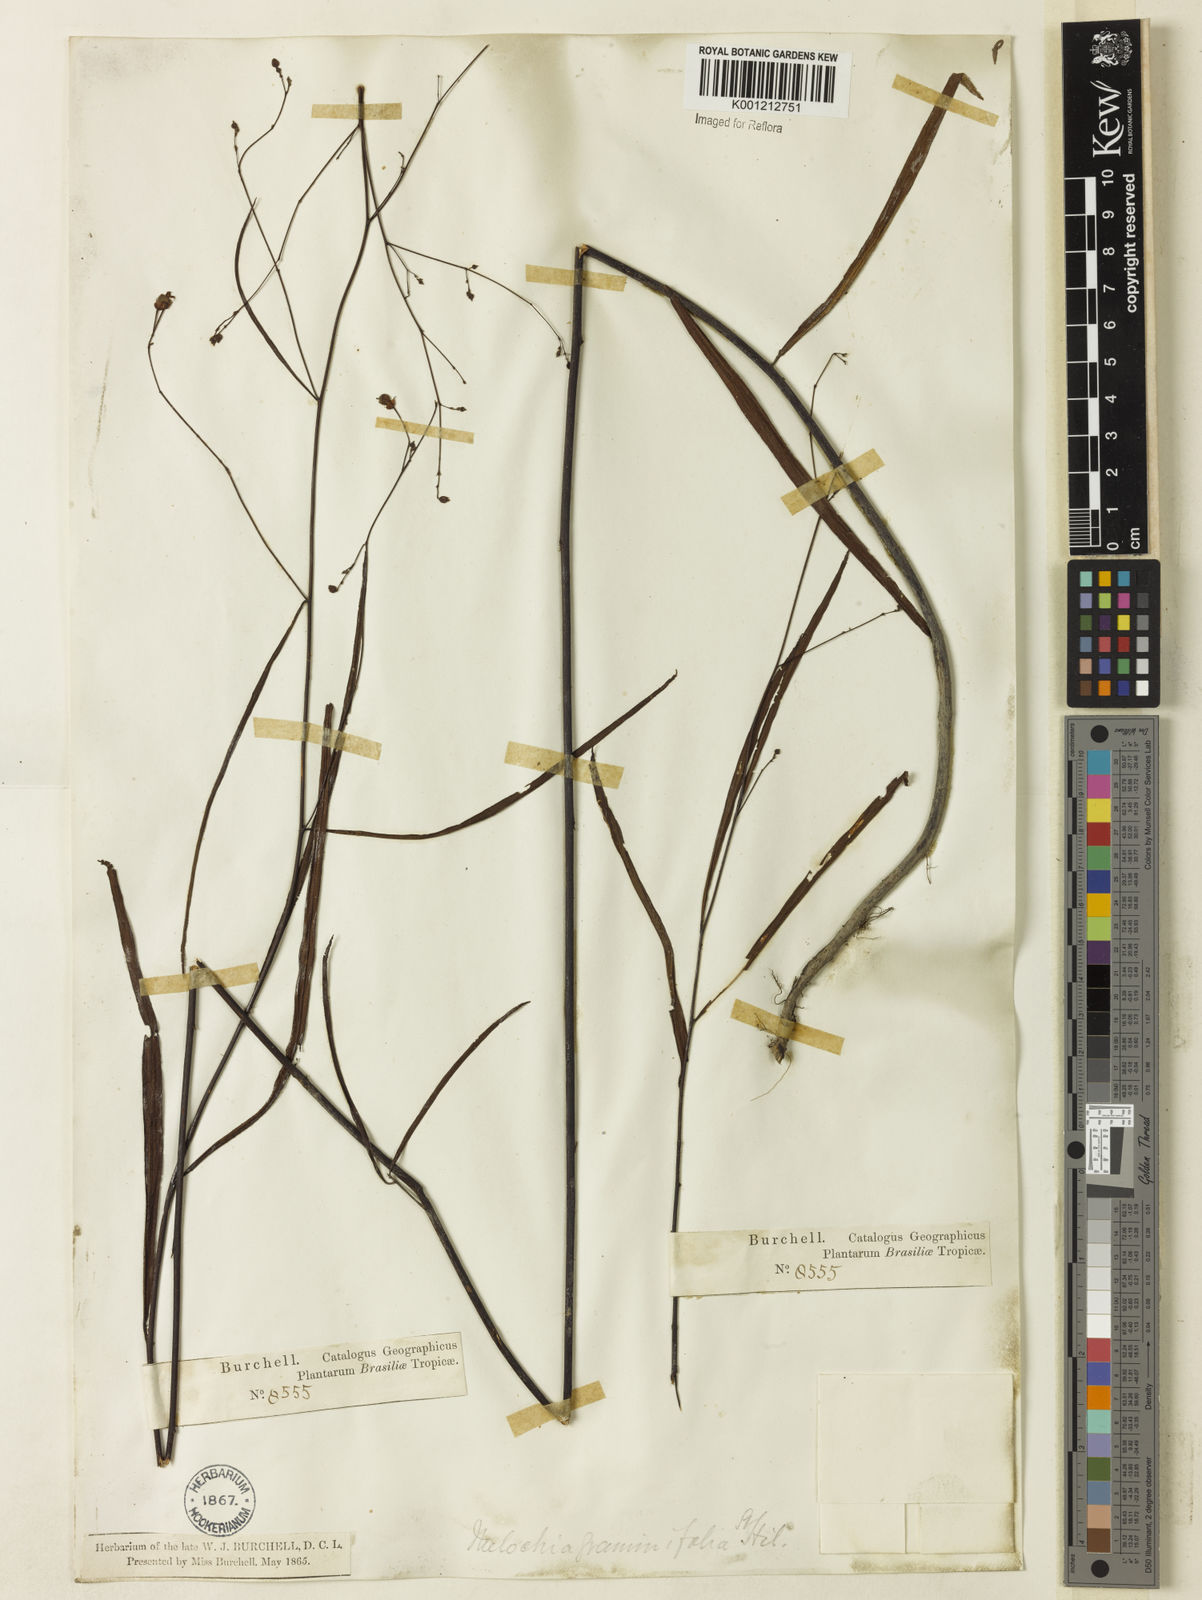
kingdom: Plantae
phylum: Tracheophyta
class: Magnoliopsida
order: Malvales
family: Malvaceae
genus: Melochia
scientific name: Melochia graminifolia
